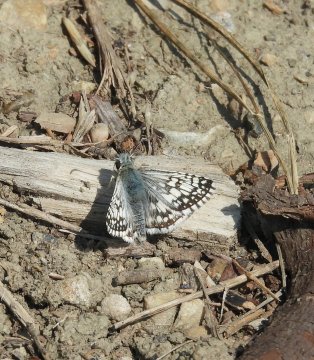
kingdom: Animalia
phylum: Arthropoda
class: Insecta
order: Lepidoptera
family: Hesperiidae
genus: Pyrgus
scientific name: Pyrgus communis
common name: Common Checkered-Skipper
